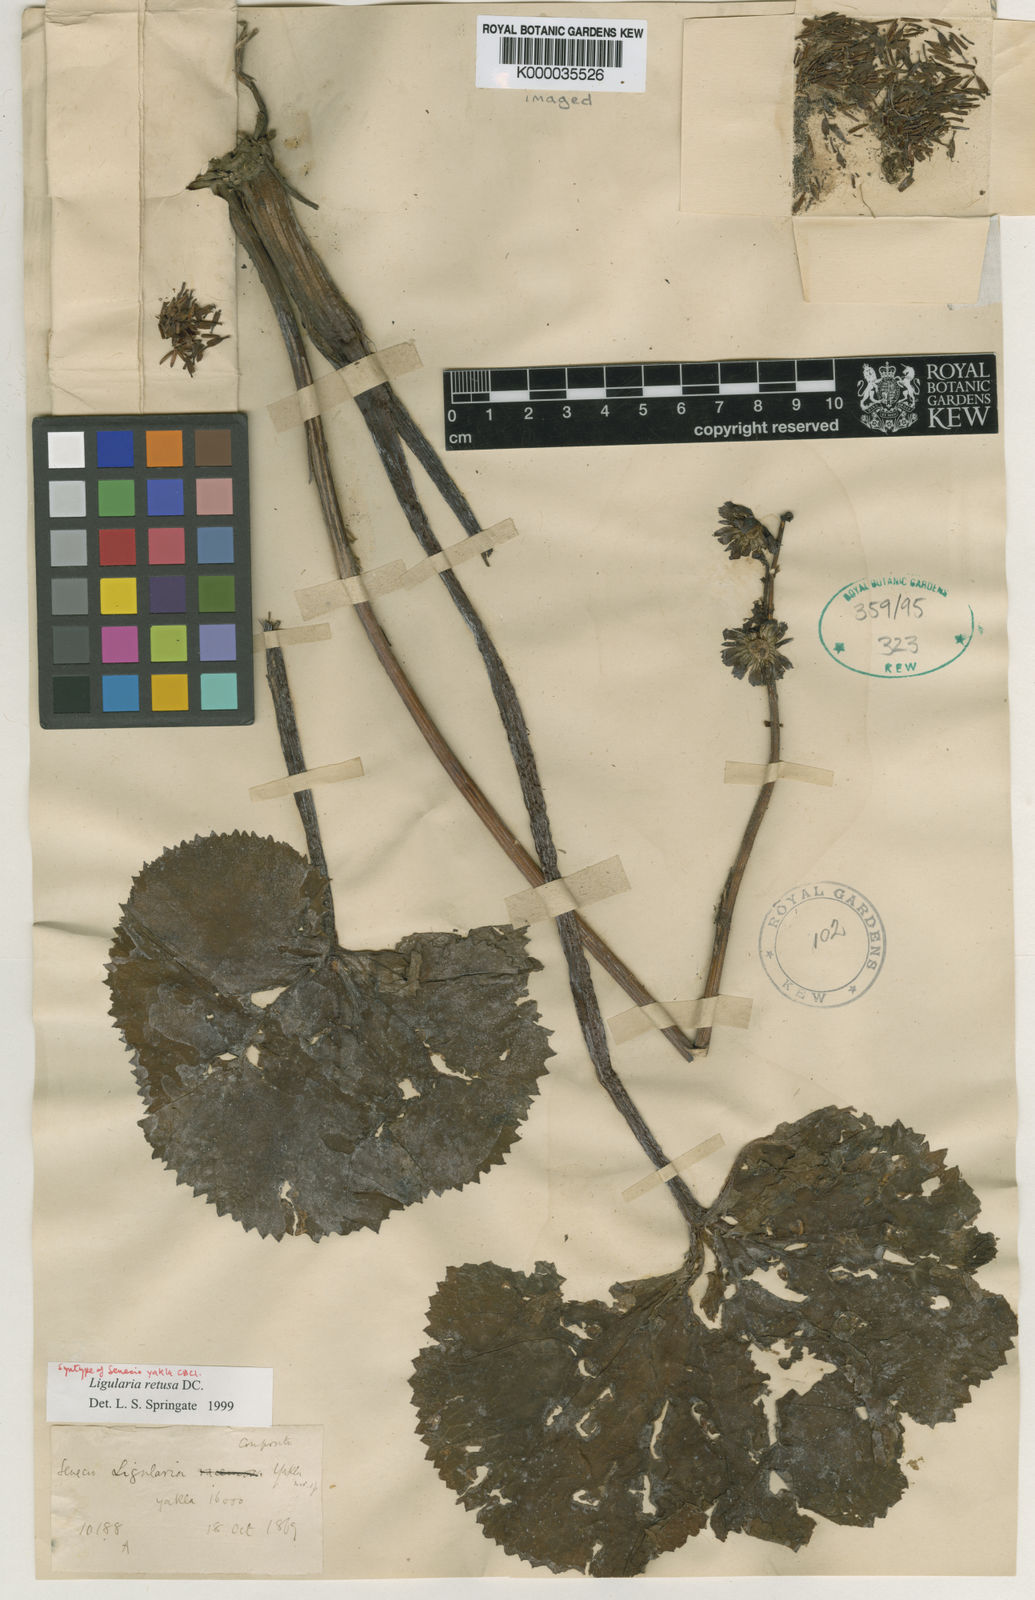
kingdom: Plantae
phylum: Tracheophyta
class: Magnoliopsida
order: Asterales
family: Asteraceae
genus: Ligularia
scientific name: Ligularia retusa
